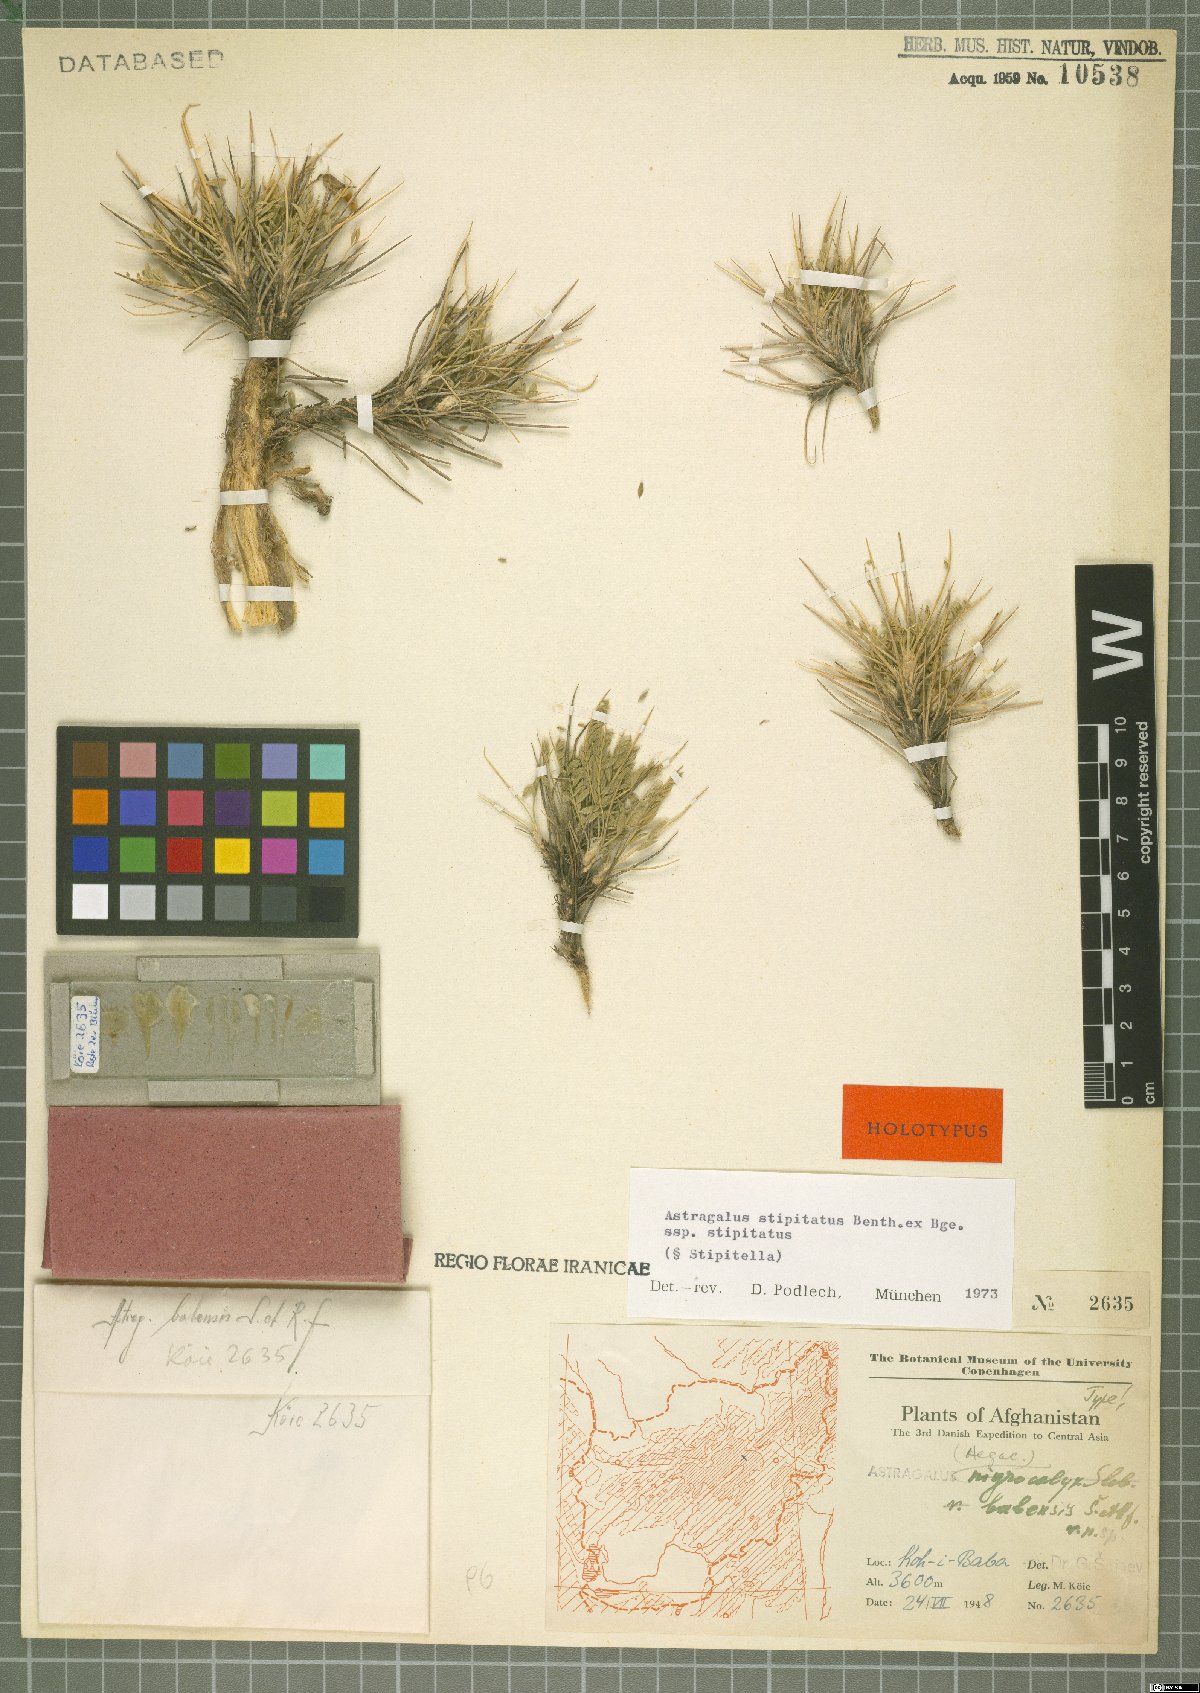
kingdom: Plantae
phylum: Tracheophyta
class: Magnoliopsida
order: Fabales
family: Fabaceae
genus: Astragalus
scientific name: Astragalus stipitatus
